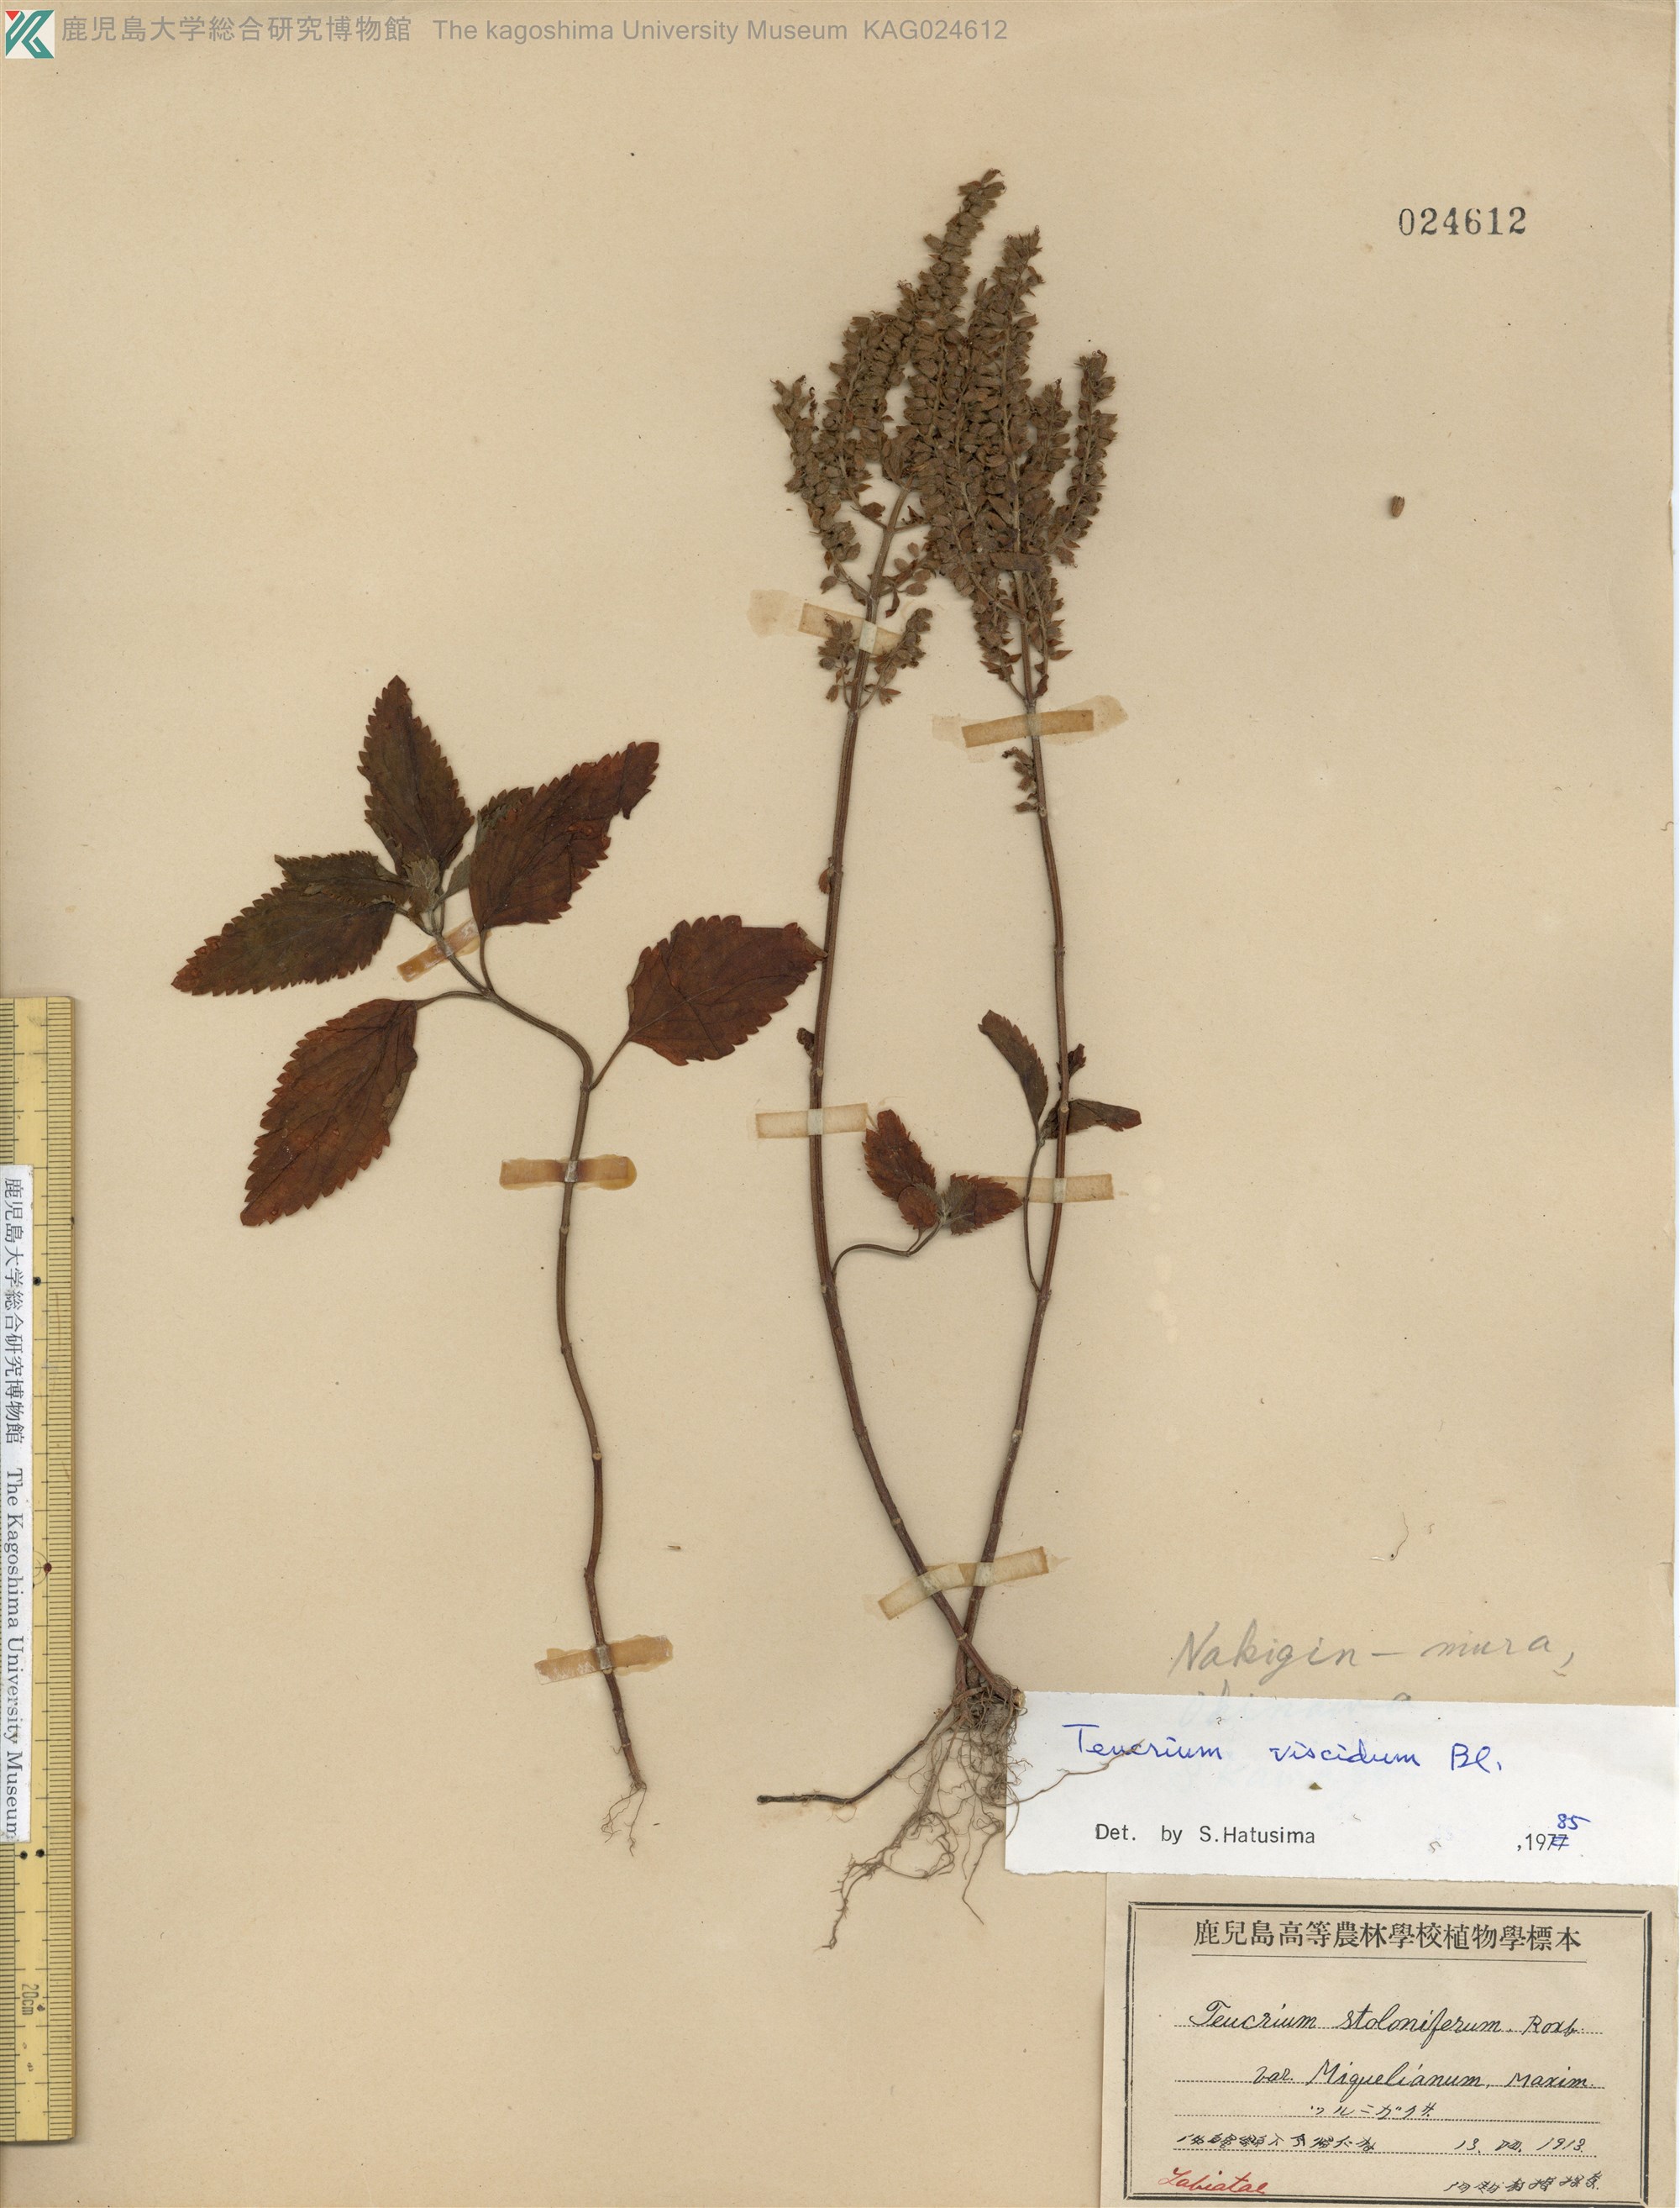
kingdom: Plantae
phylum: Tracheophyta
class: Magnoliopsida
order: Lamiales
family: Lamiaceae
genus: Teucrium
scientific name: Teucrium viscidum
